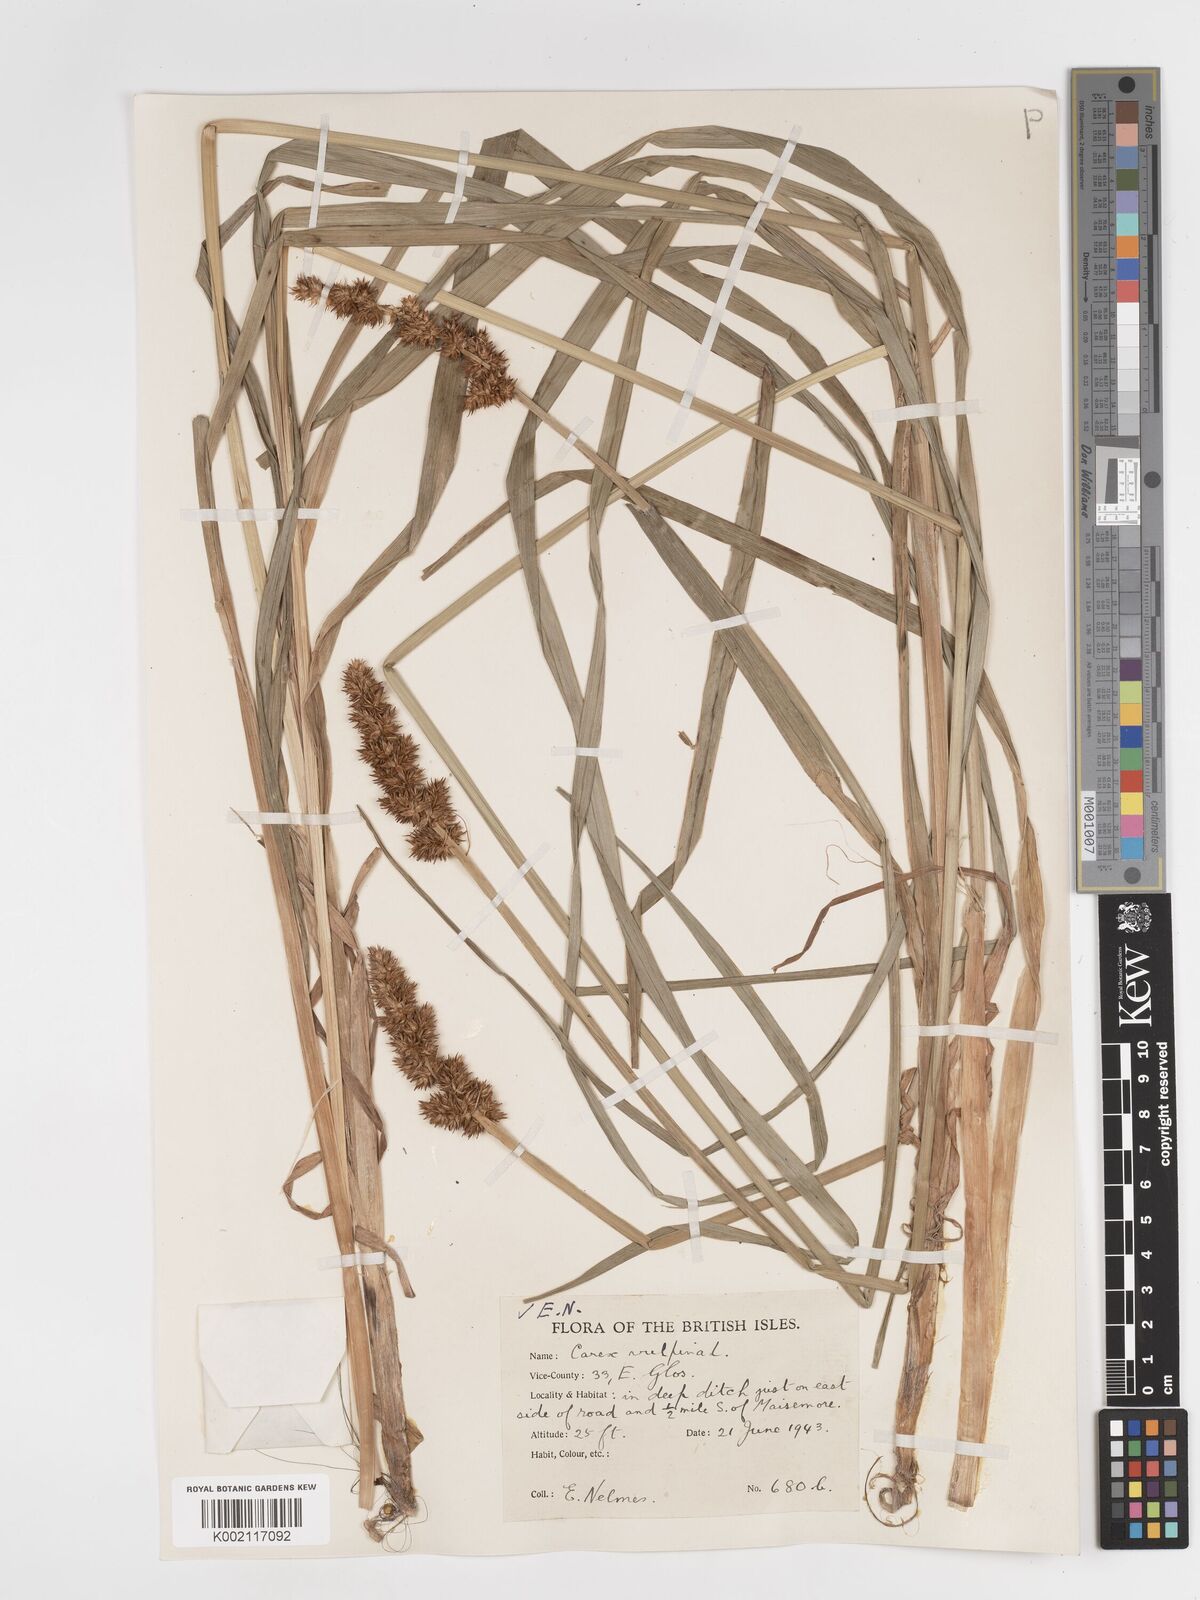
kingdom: Plantae
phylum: Tracheophyta
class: Liliopsida
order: Poales
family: Cyperaceae
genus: Carex
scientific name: Carex vulpina
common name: True fox-sedge
